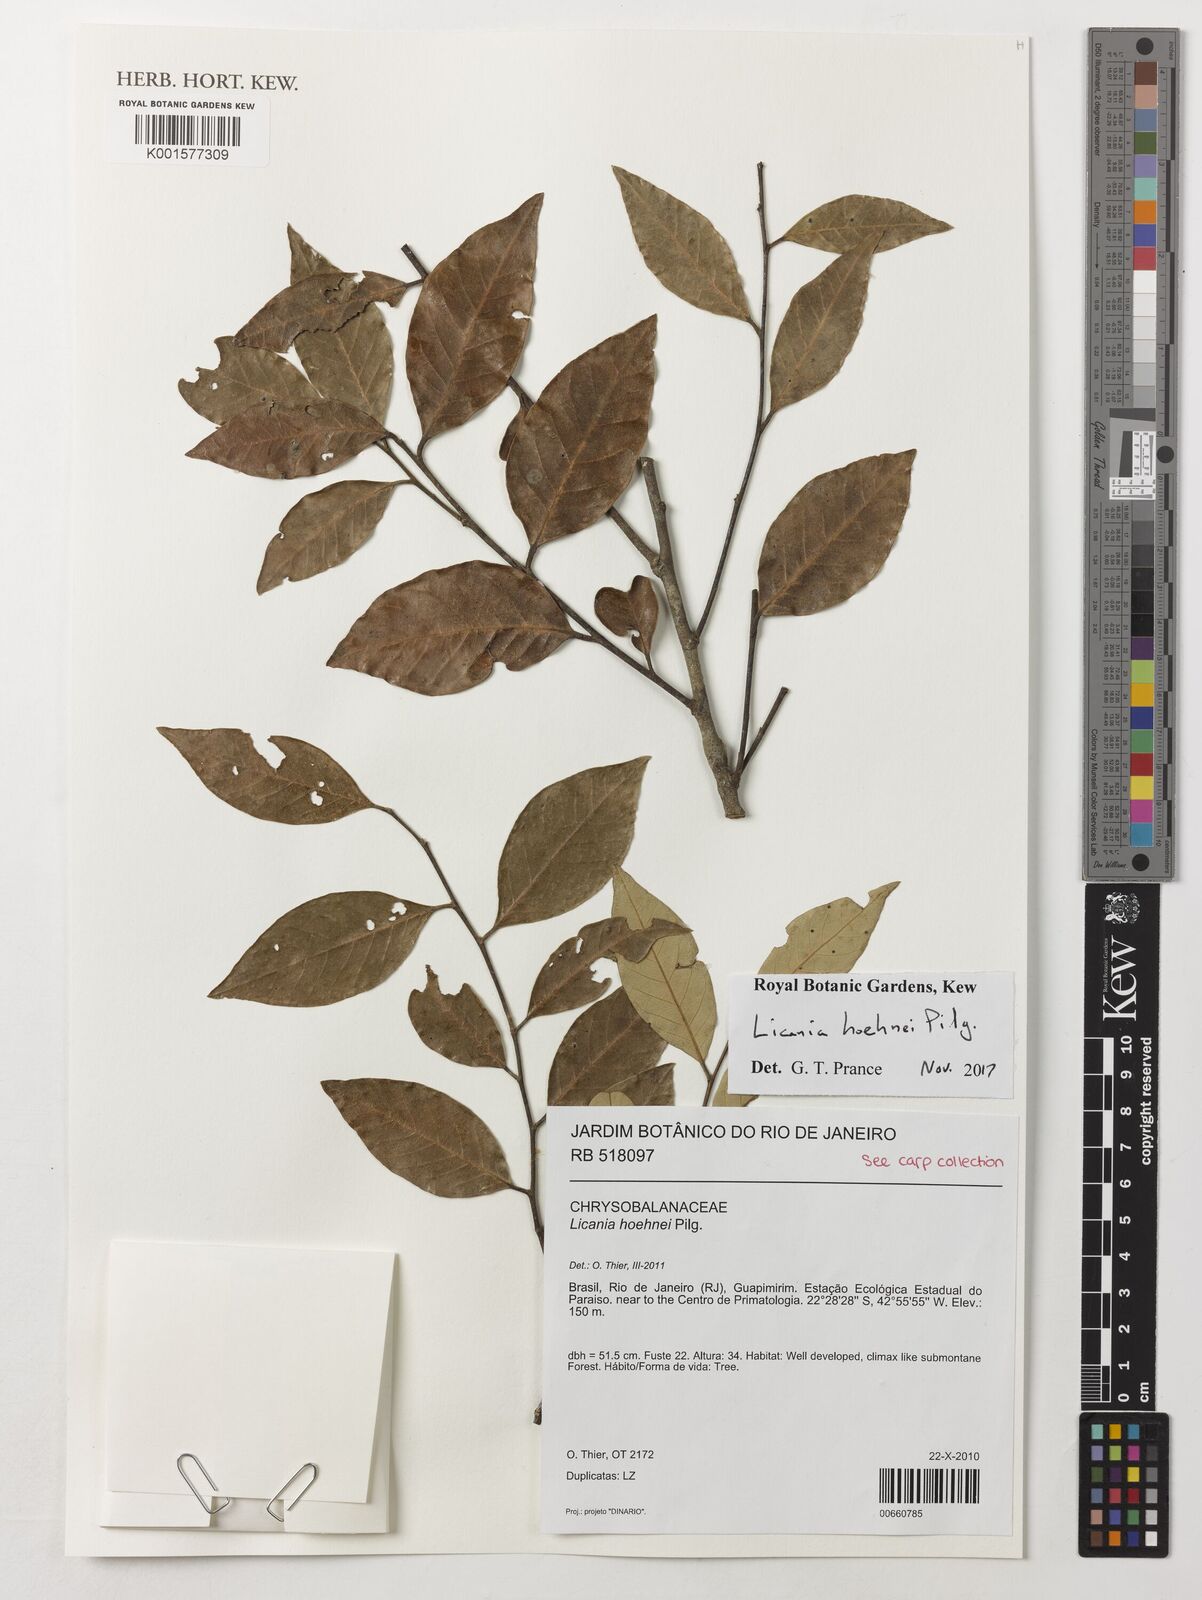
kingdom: Plantae
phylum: Tracheophyta
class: Magnoliopsida
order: Malpighiales
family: Chrysobalanaceae
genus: Licania
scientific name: Licania hoehnei
